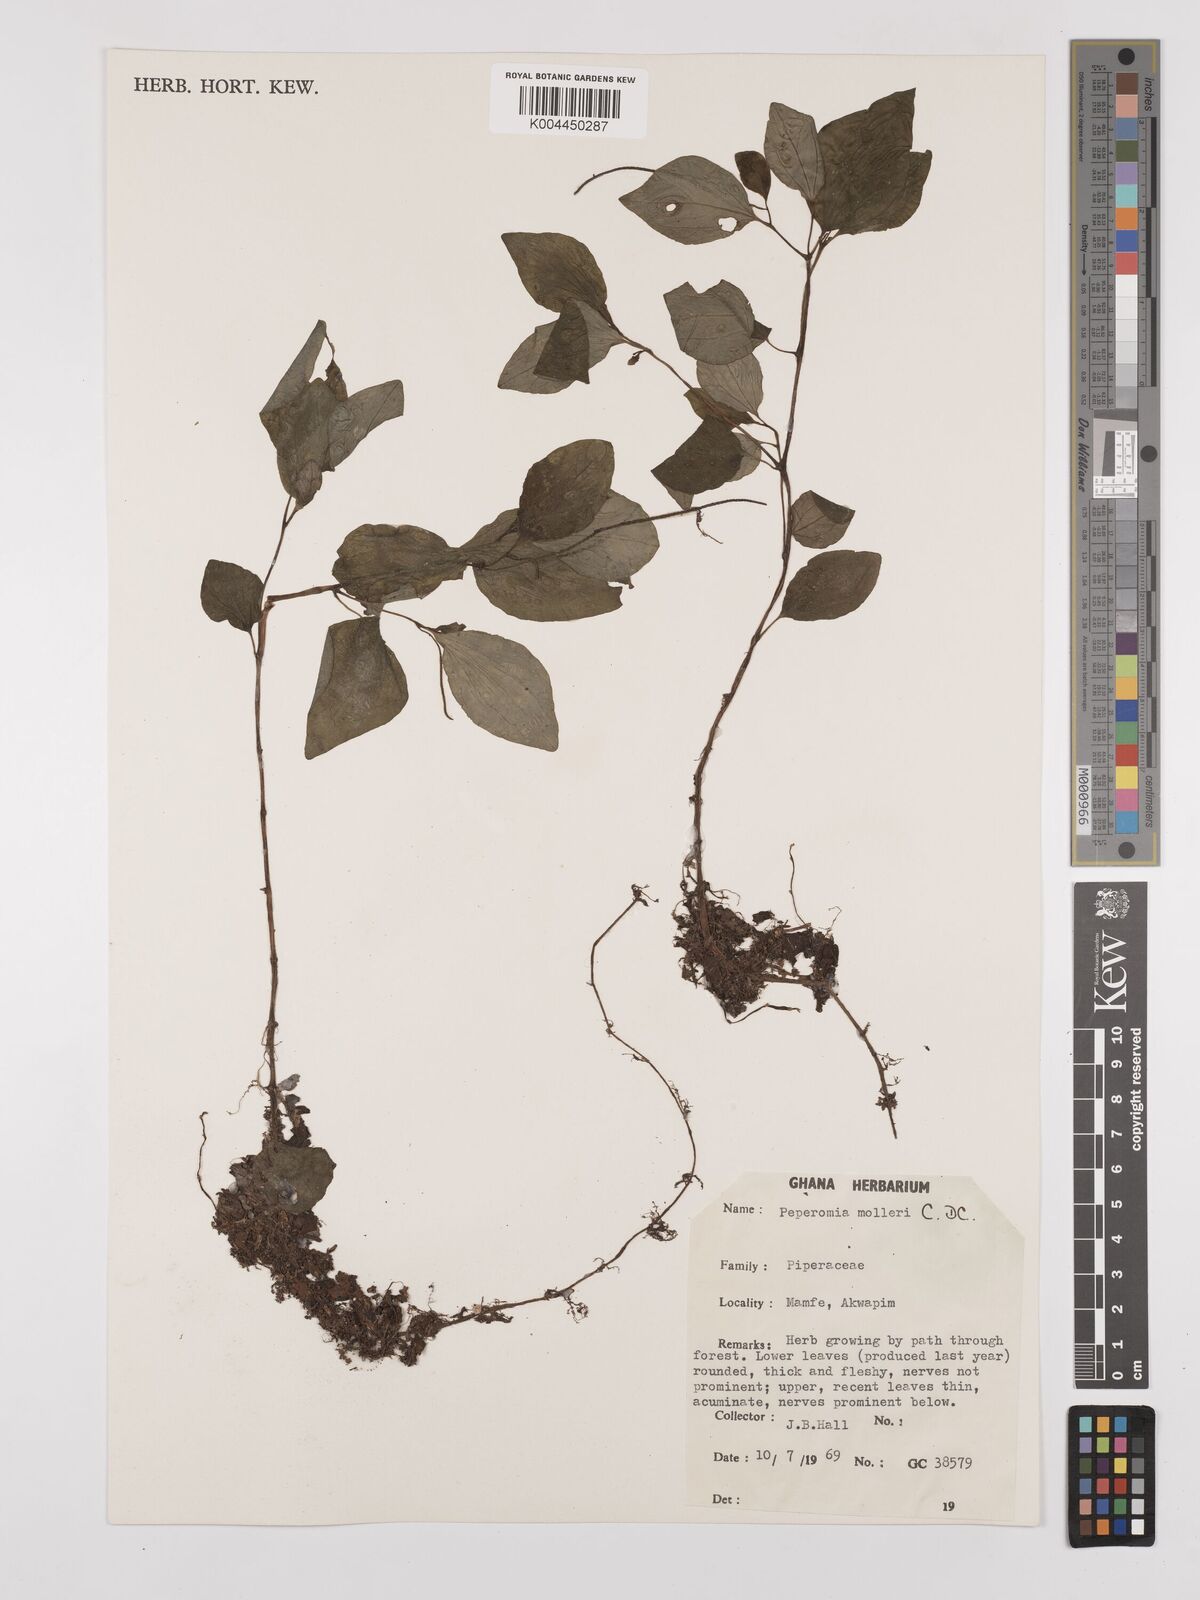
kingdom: Plantae
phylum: Tracheophyta
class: Magnoliopsida
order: Piperales
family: Piperaceae
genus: Peperomia
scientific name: Peperomia molleri
